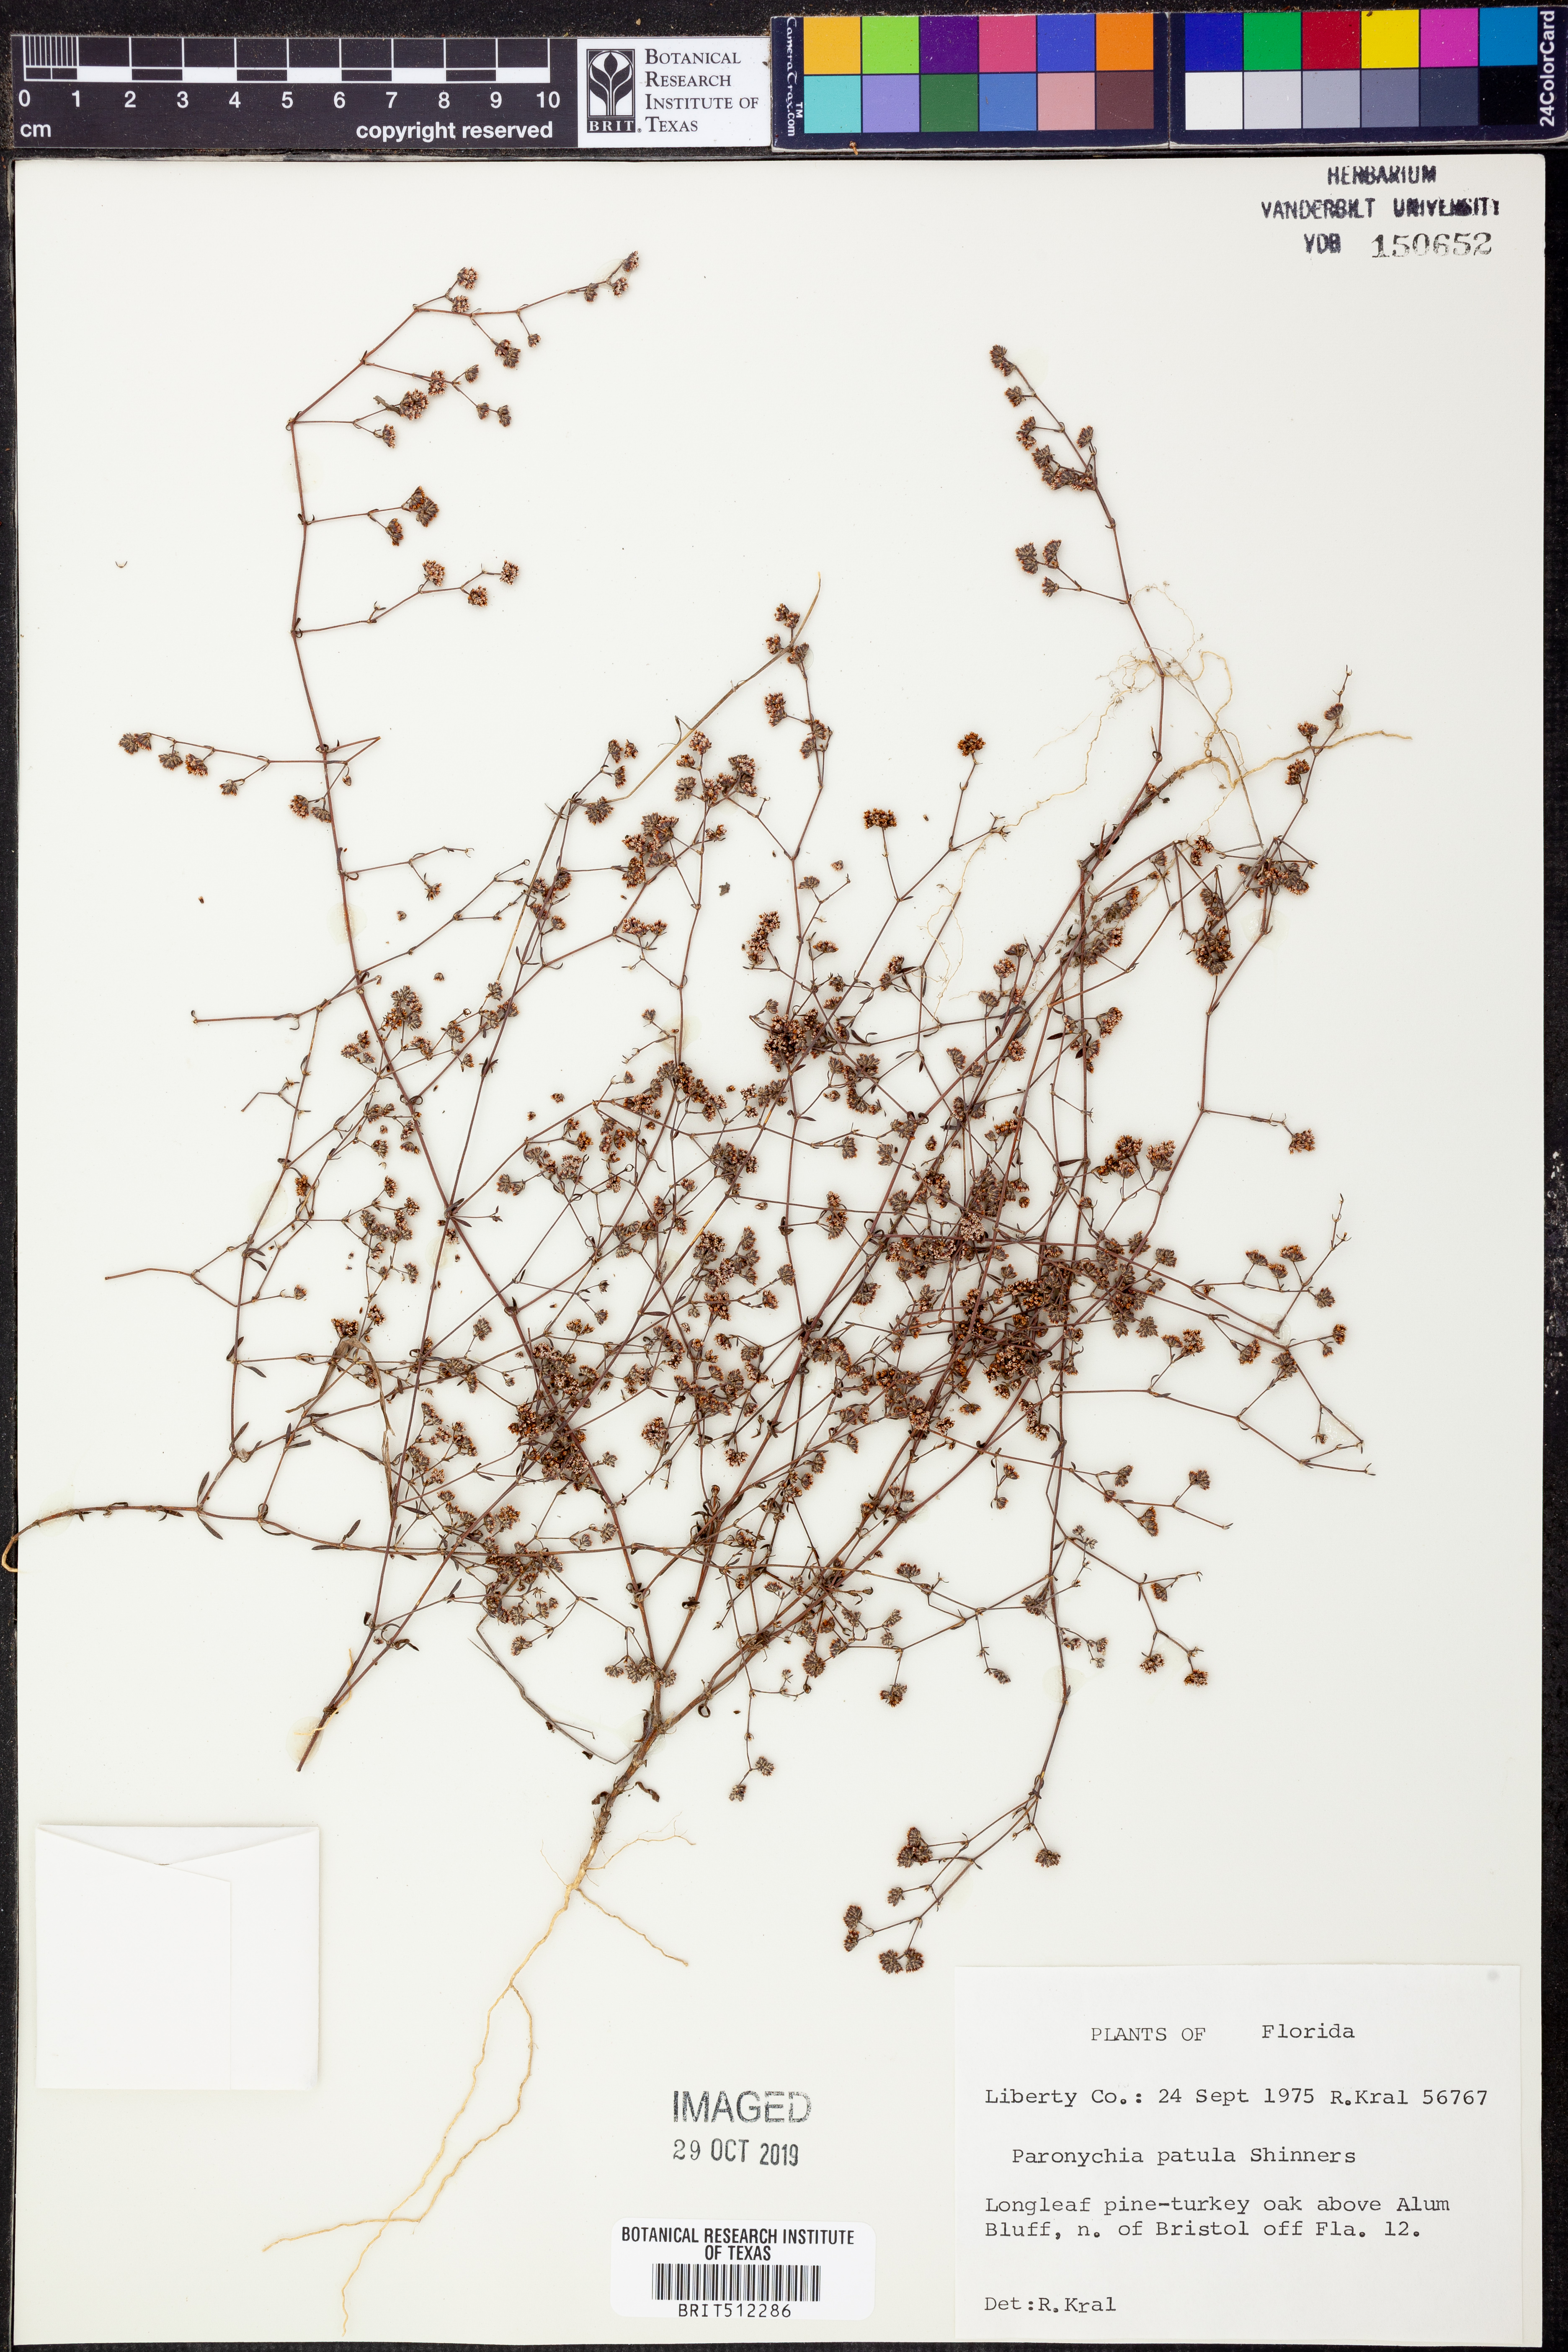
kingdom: Plantae
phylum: Tracheophyta
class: Magnoliopsida
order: Caryophyllales
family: Caryophyllaceae
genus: Paronychia
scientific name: Paronychia patula
